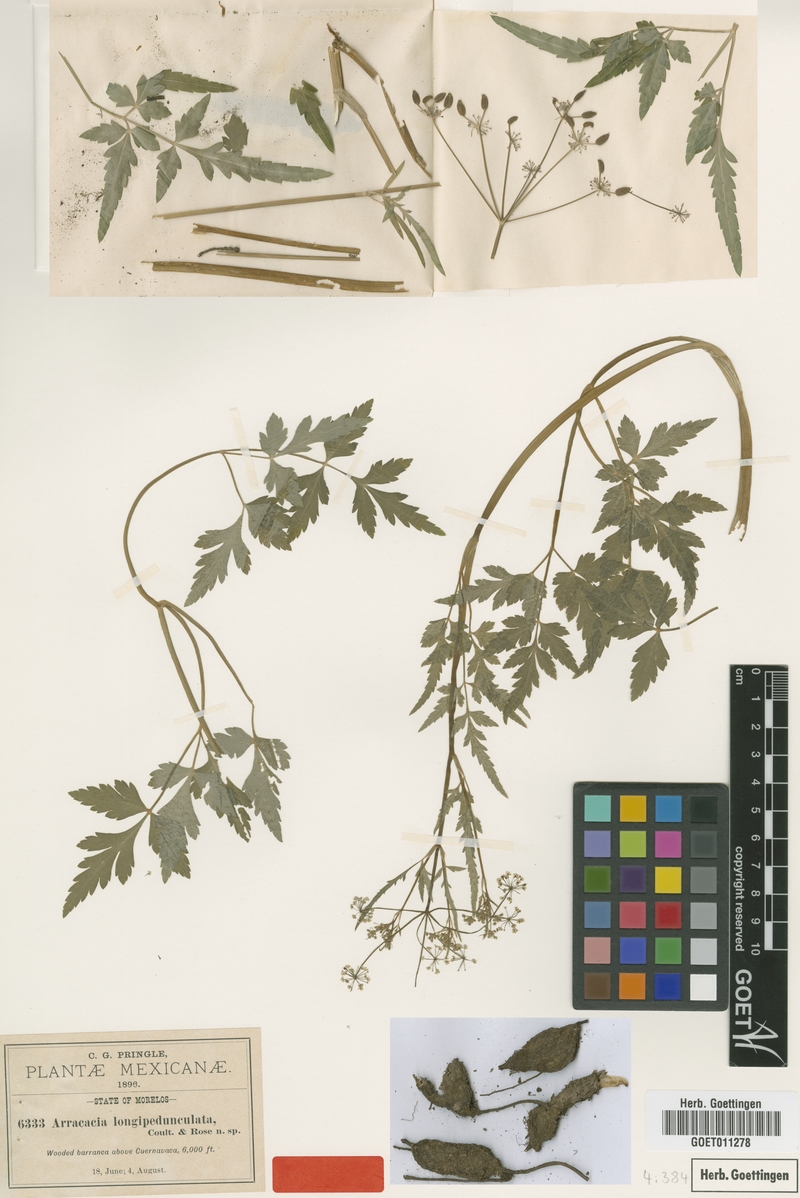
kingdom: Plantae
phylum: Tracheophyta
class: Magnoliopsida
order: Apiales
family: Apiaceae
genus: Arracacia
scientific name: Arracacia longipedunculata
